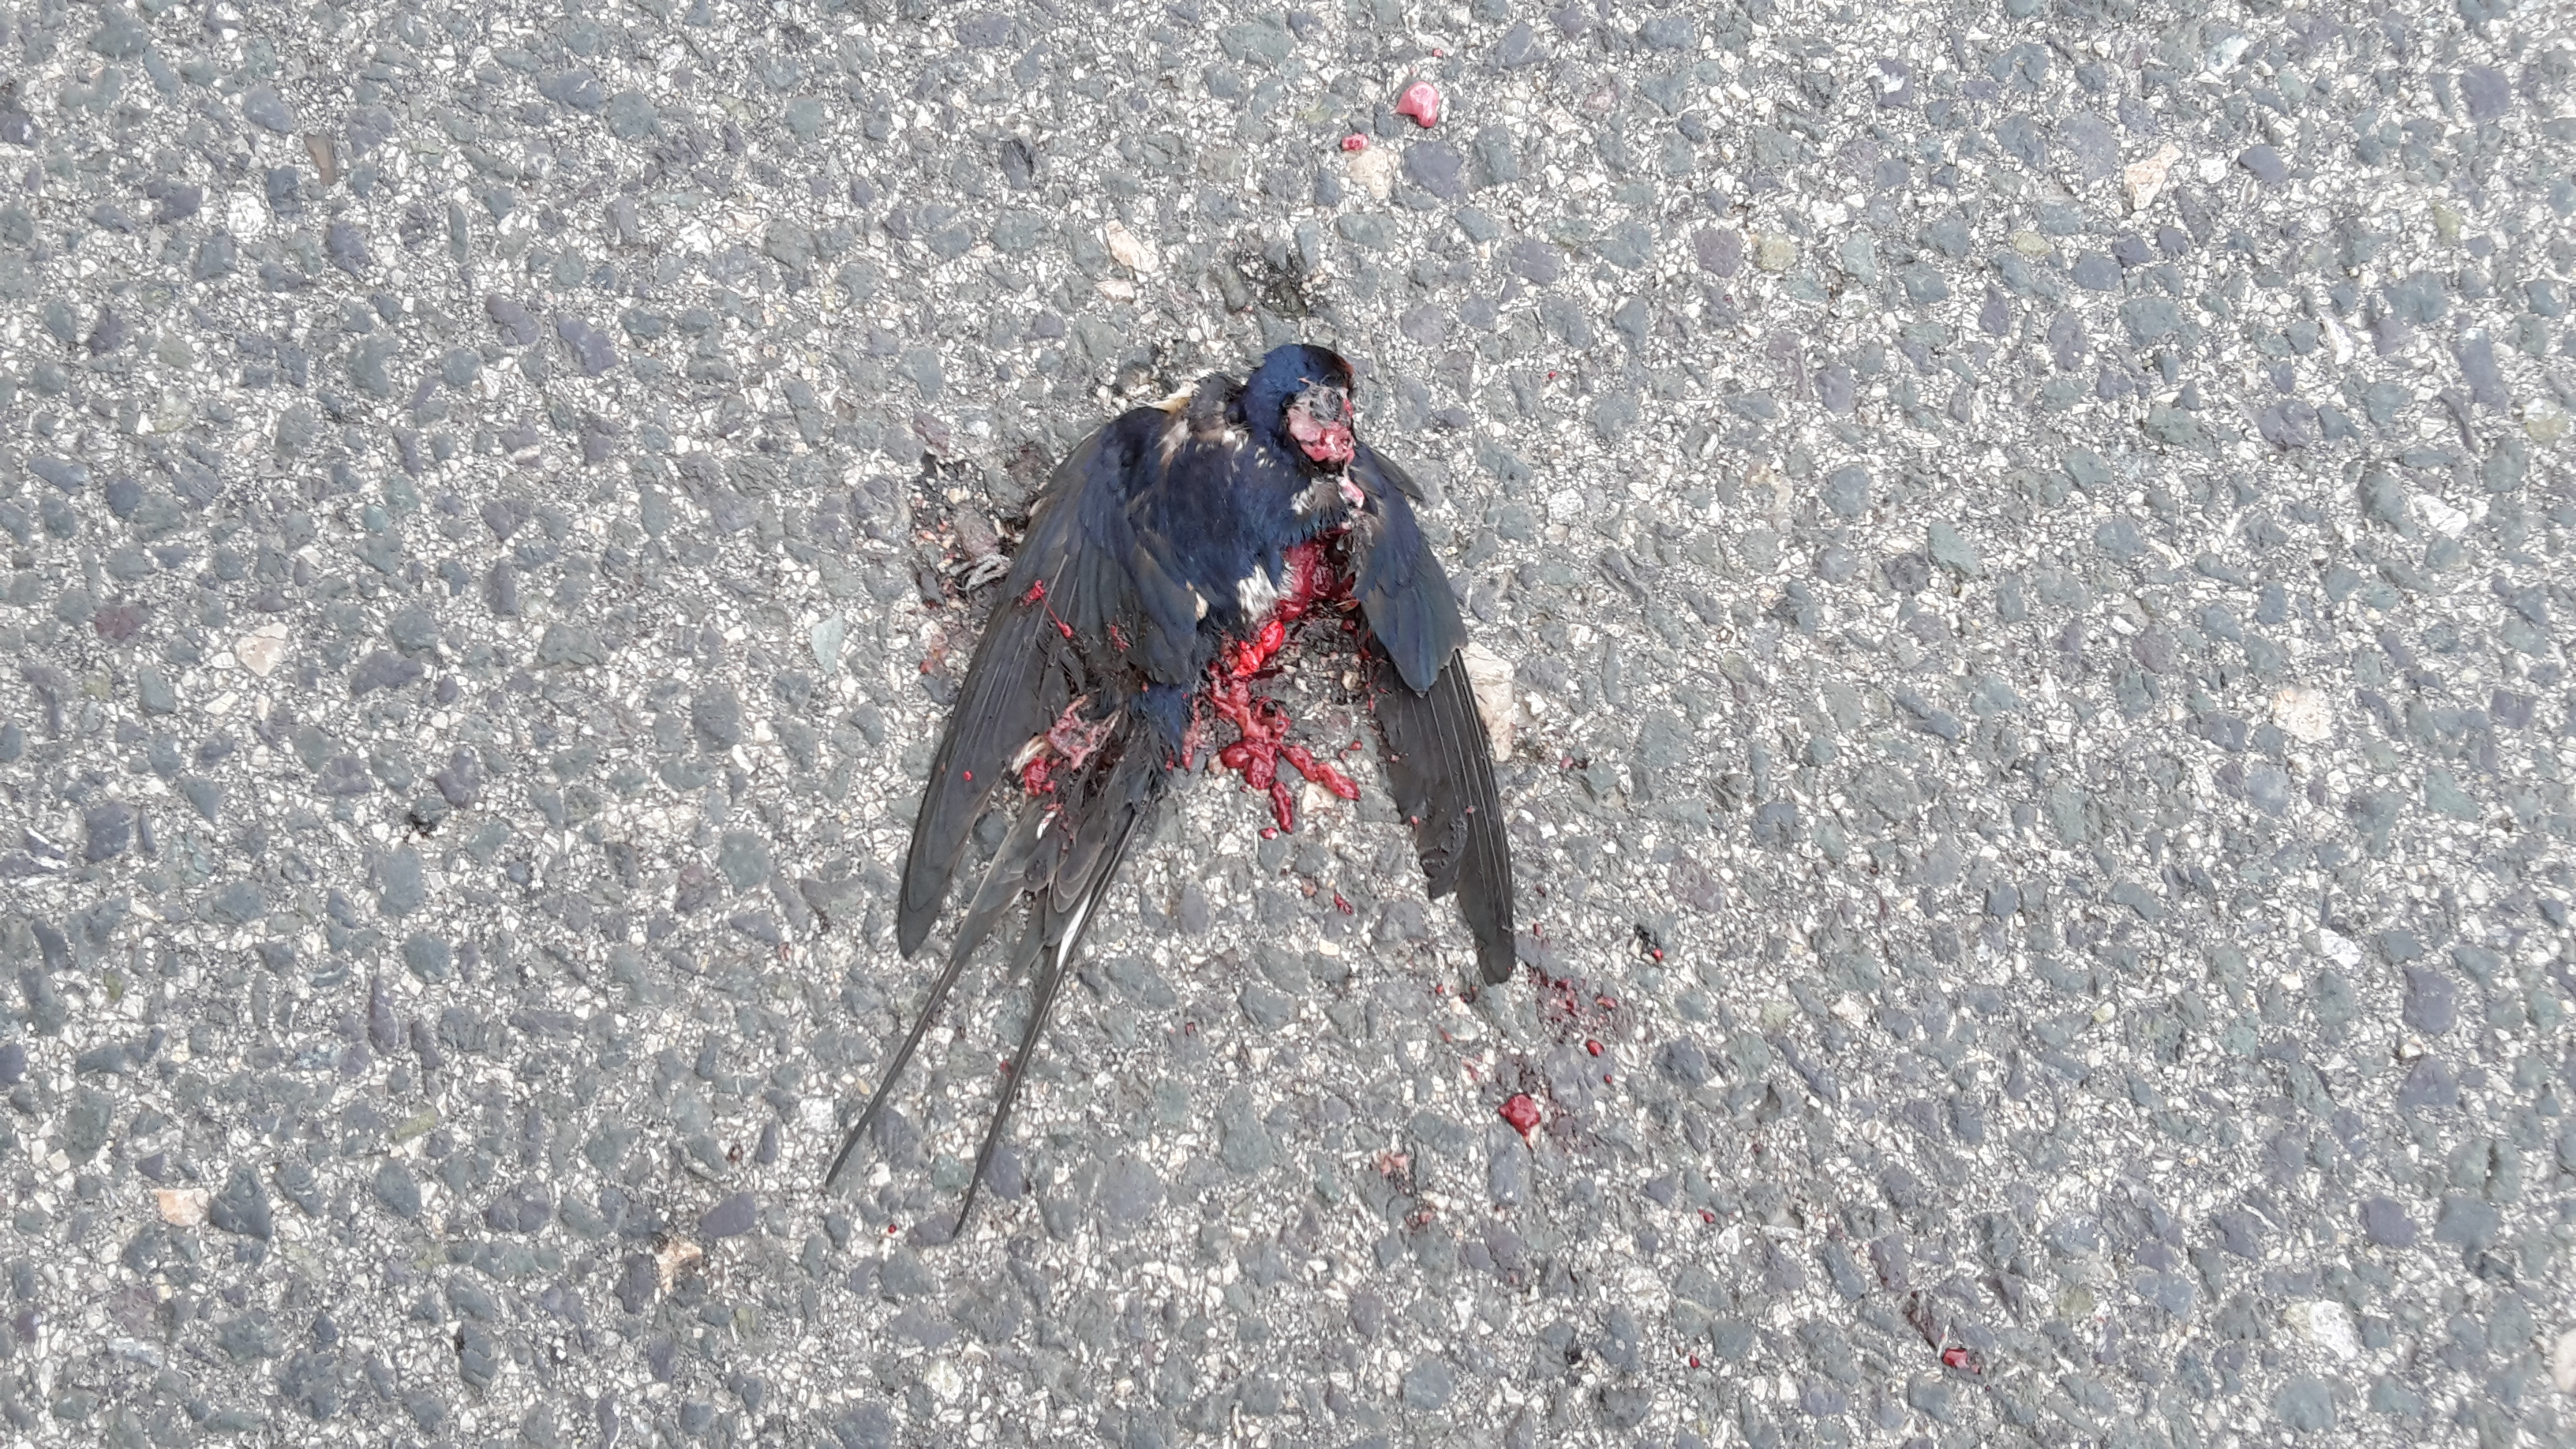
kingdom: Animalia
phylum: Chordata
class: Aves
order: Passeriformes
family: Hirundinidae
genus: Hirundo
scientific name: Hirundo rustica
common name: Barn swallow
